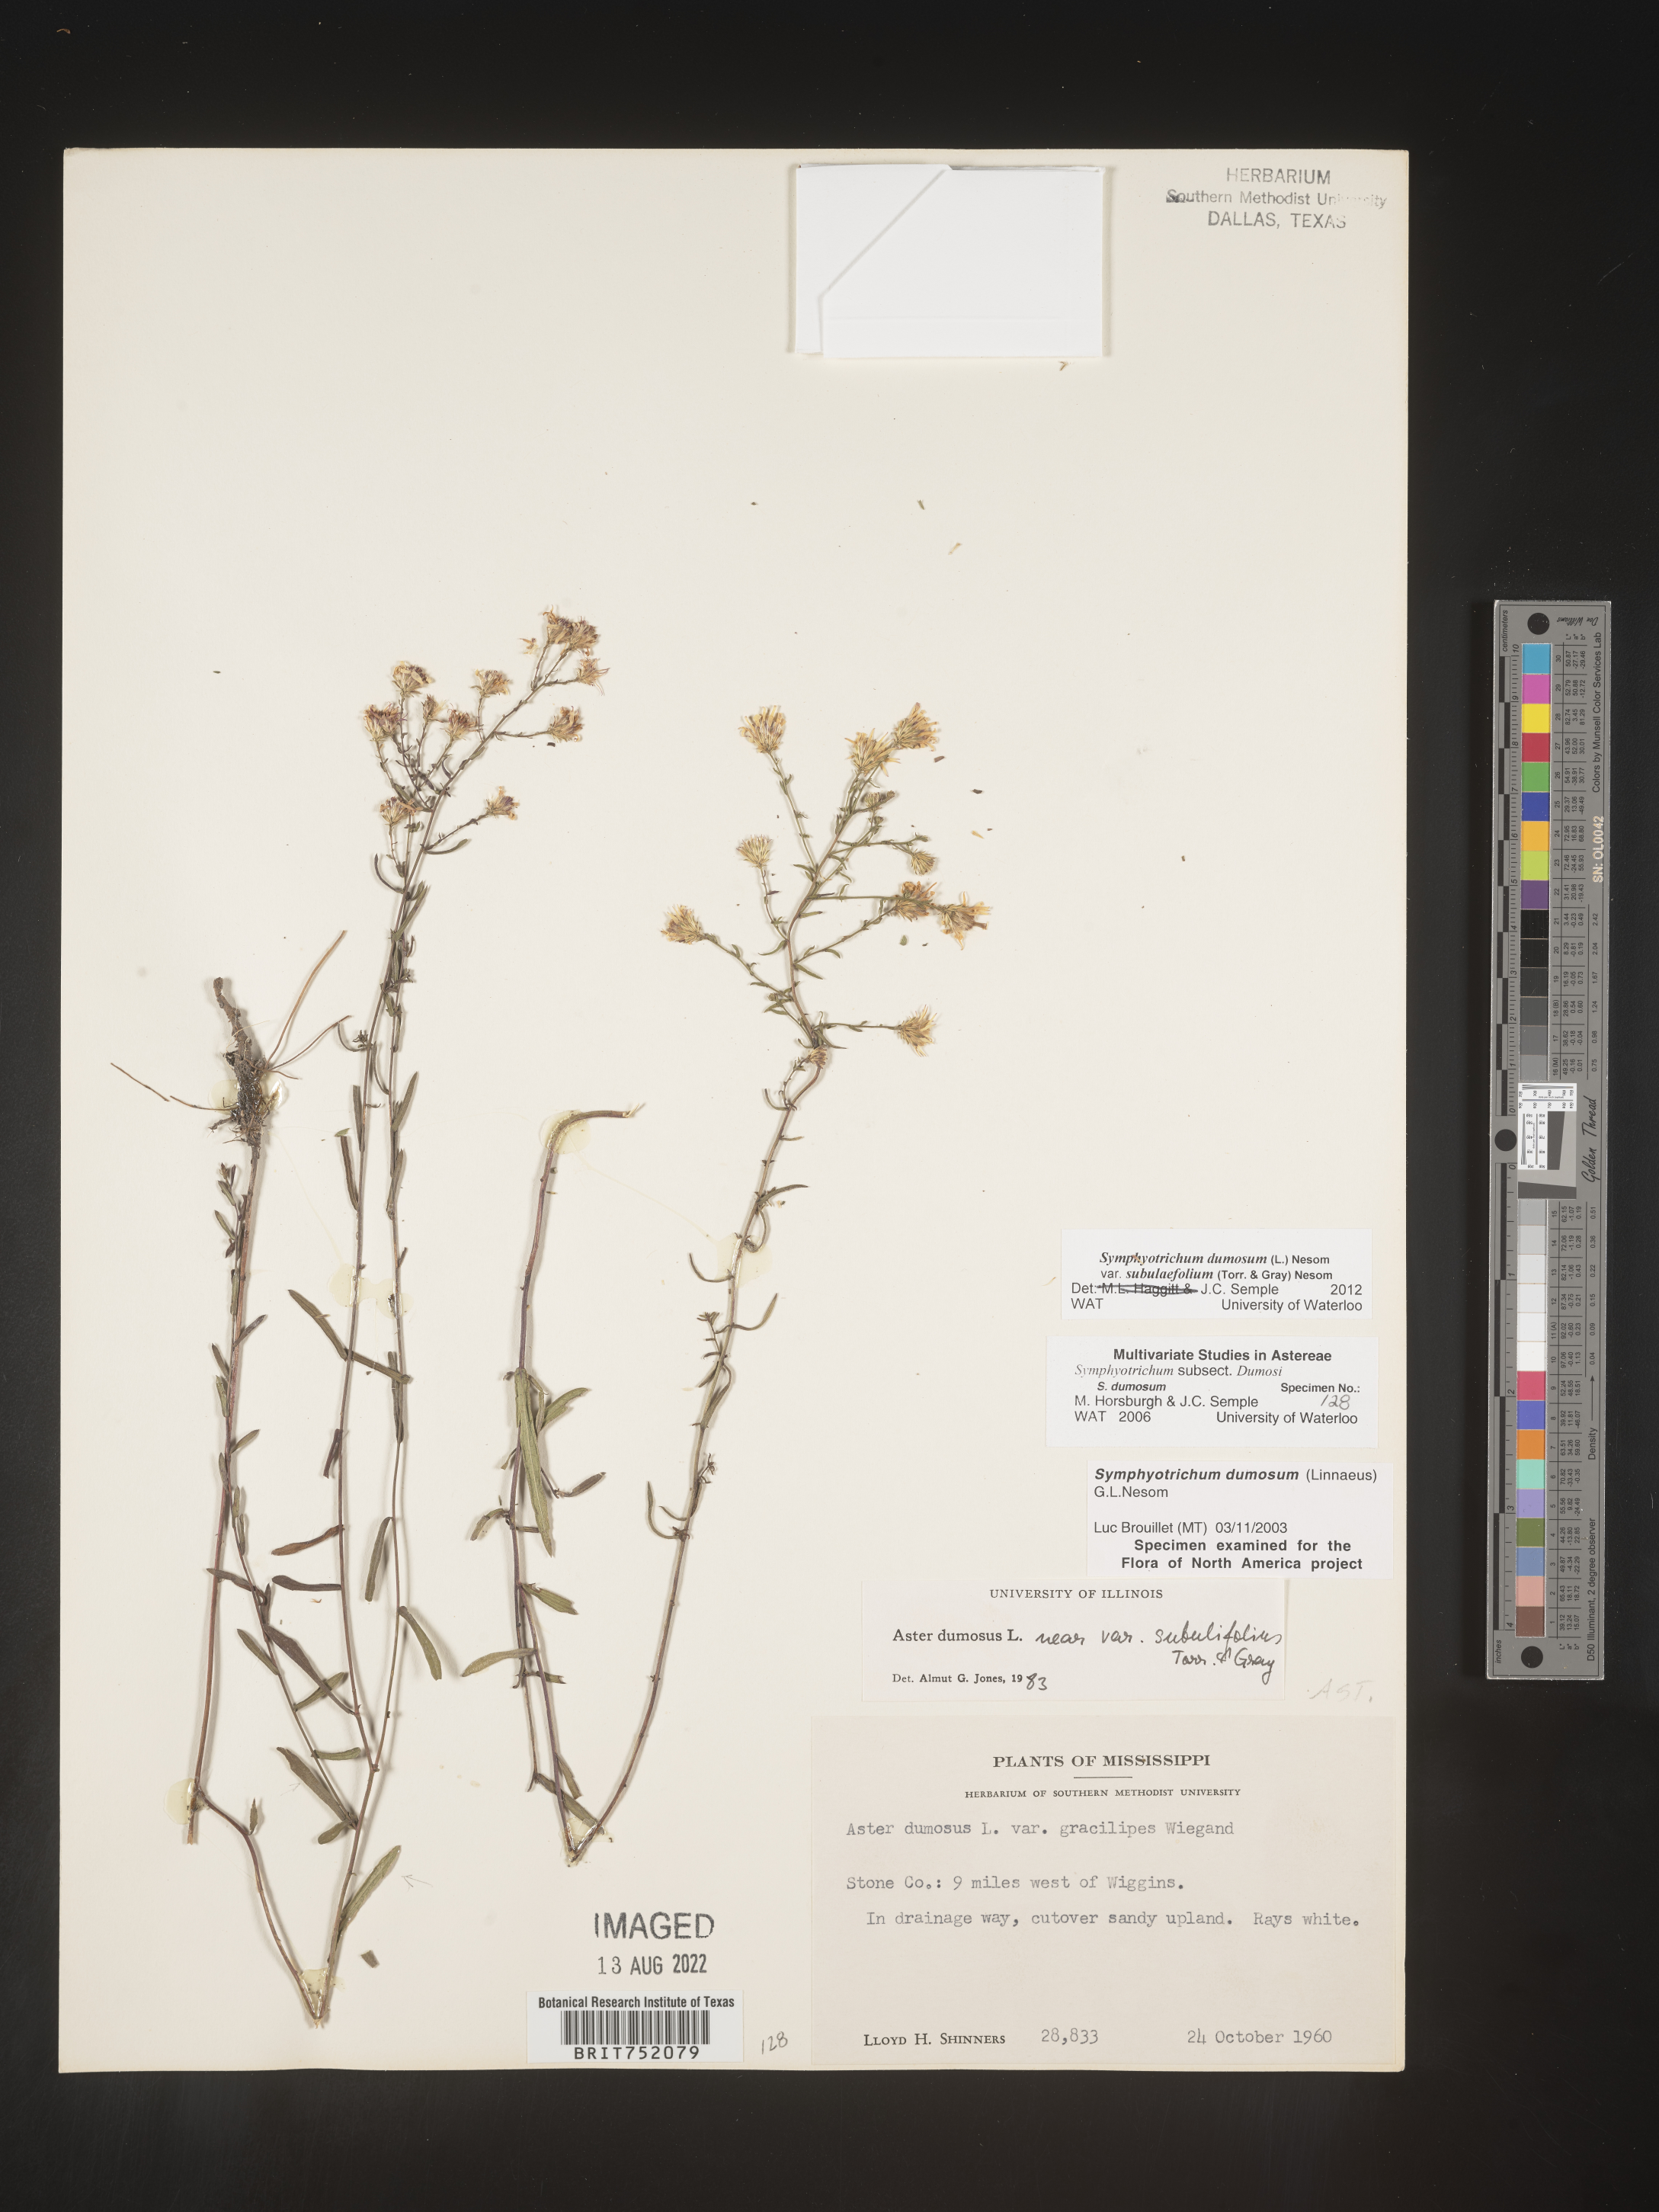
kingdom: Plantae
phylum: Tracheophyta
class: Magnoliopsida
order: Asterales
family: Asteraceae
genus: Symphyotrichum
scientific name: Symphyotrichum dumosum
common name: Bushy aster
